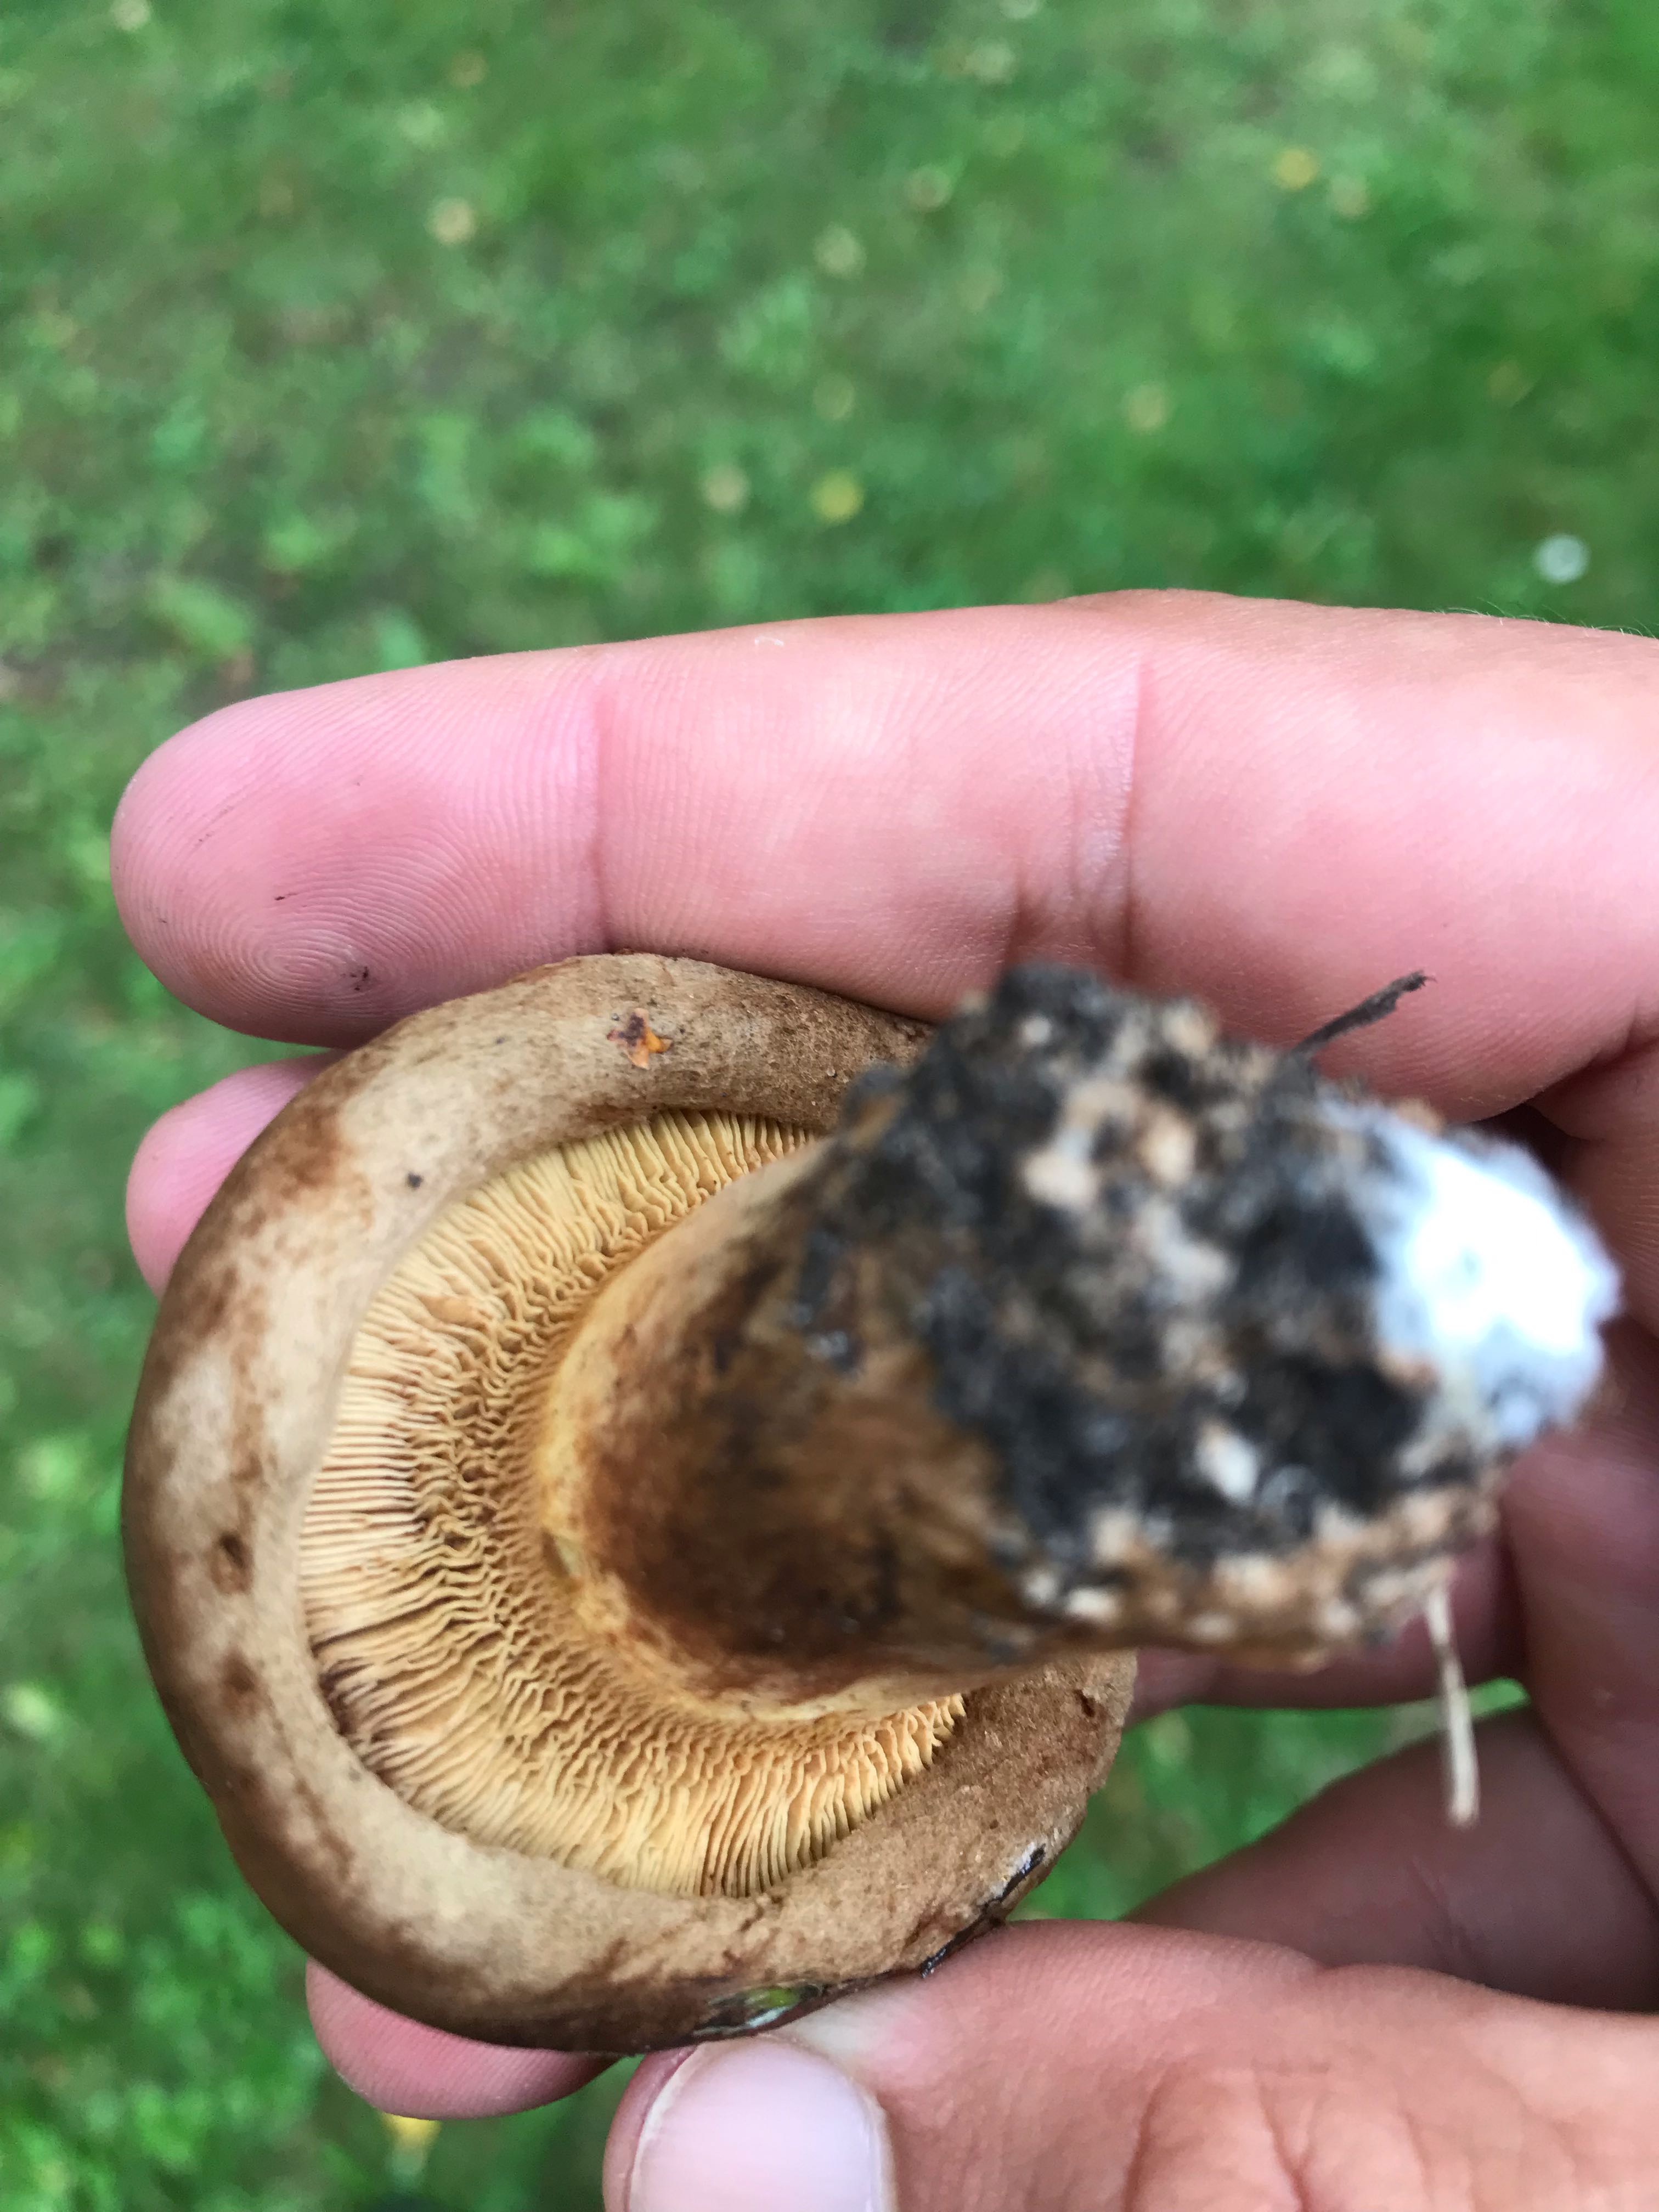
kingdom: Fungi
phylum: Basidiomycota
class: Agaricomycetes
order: Boletales
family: Paxillaceae
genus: Paxillus
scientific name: Paxillus
